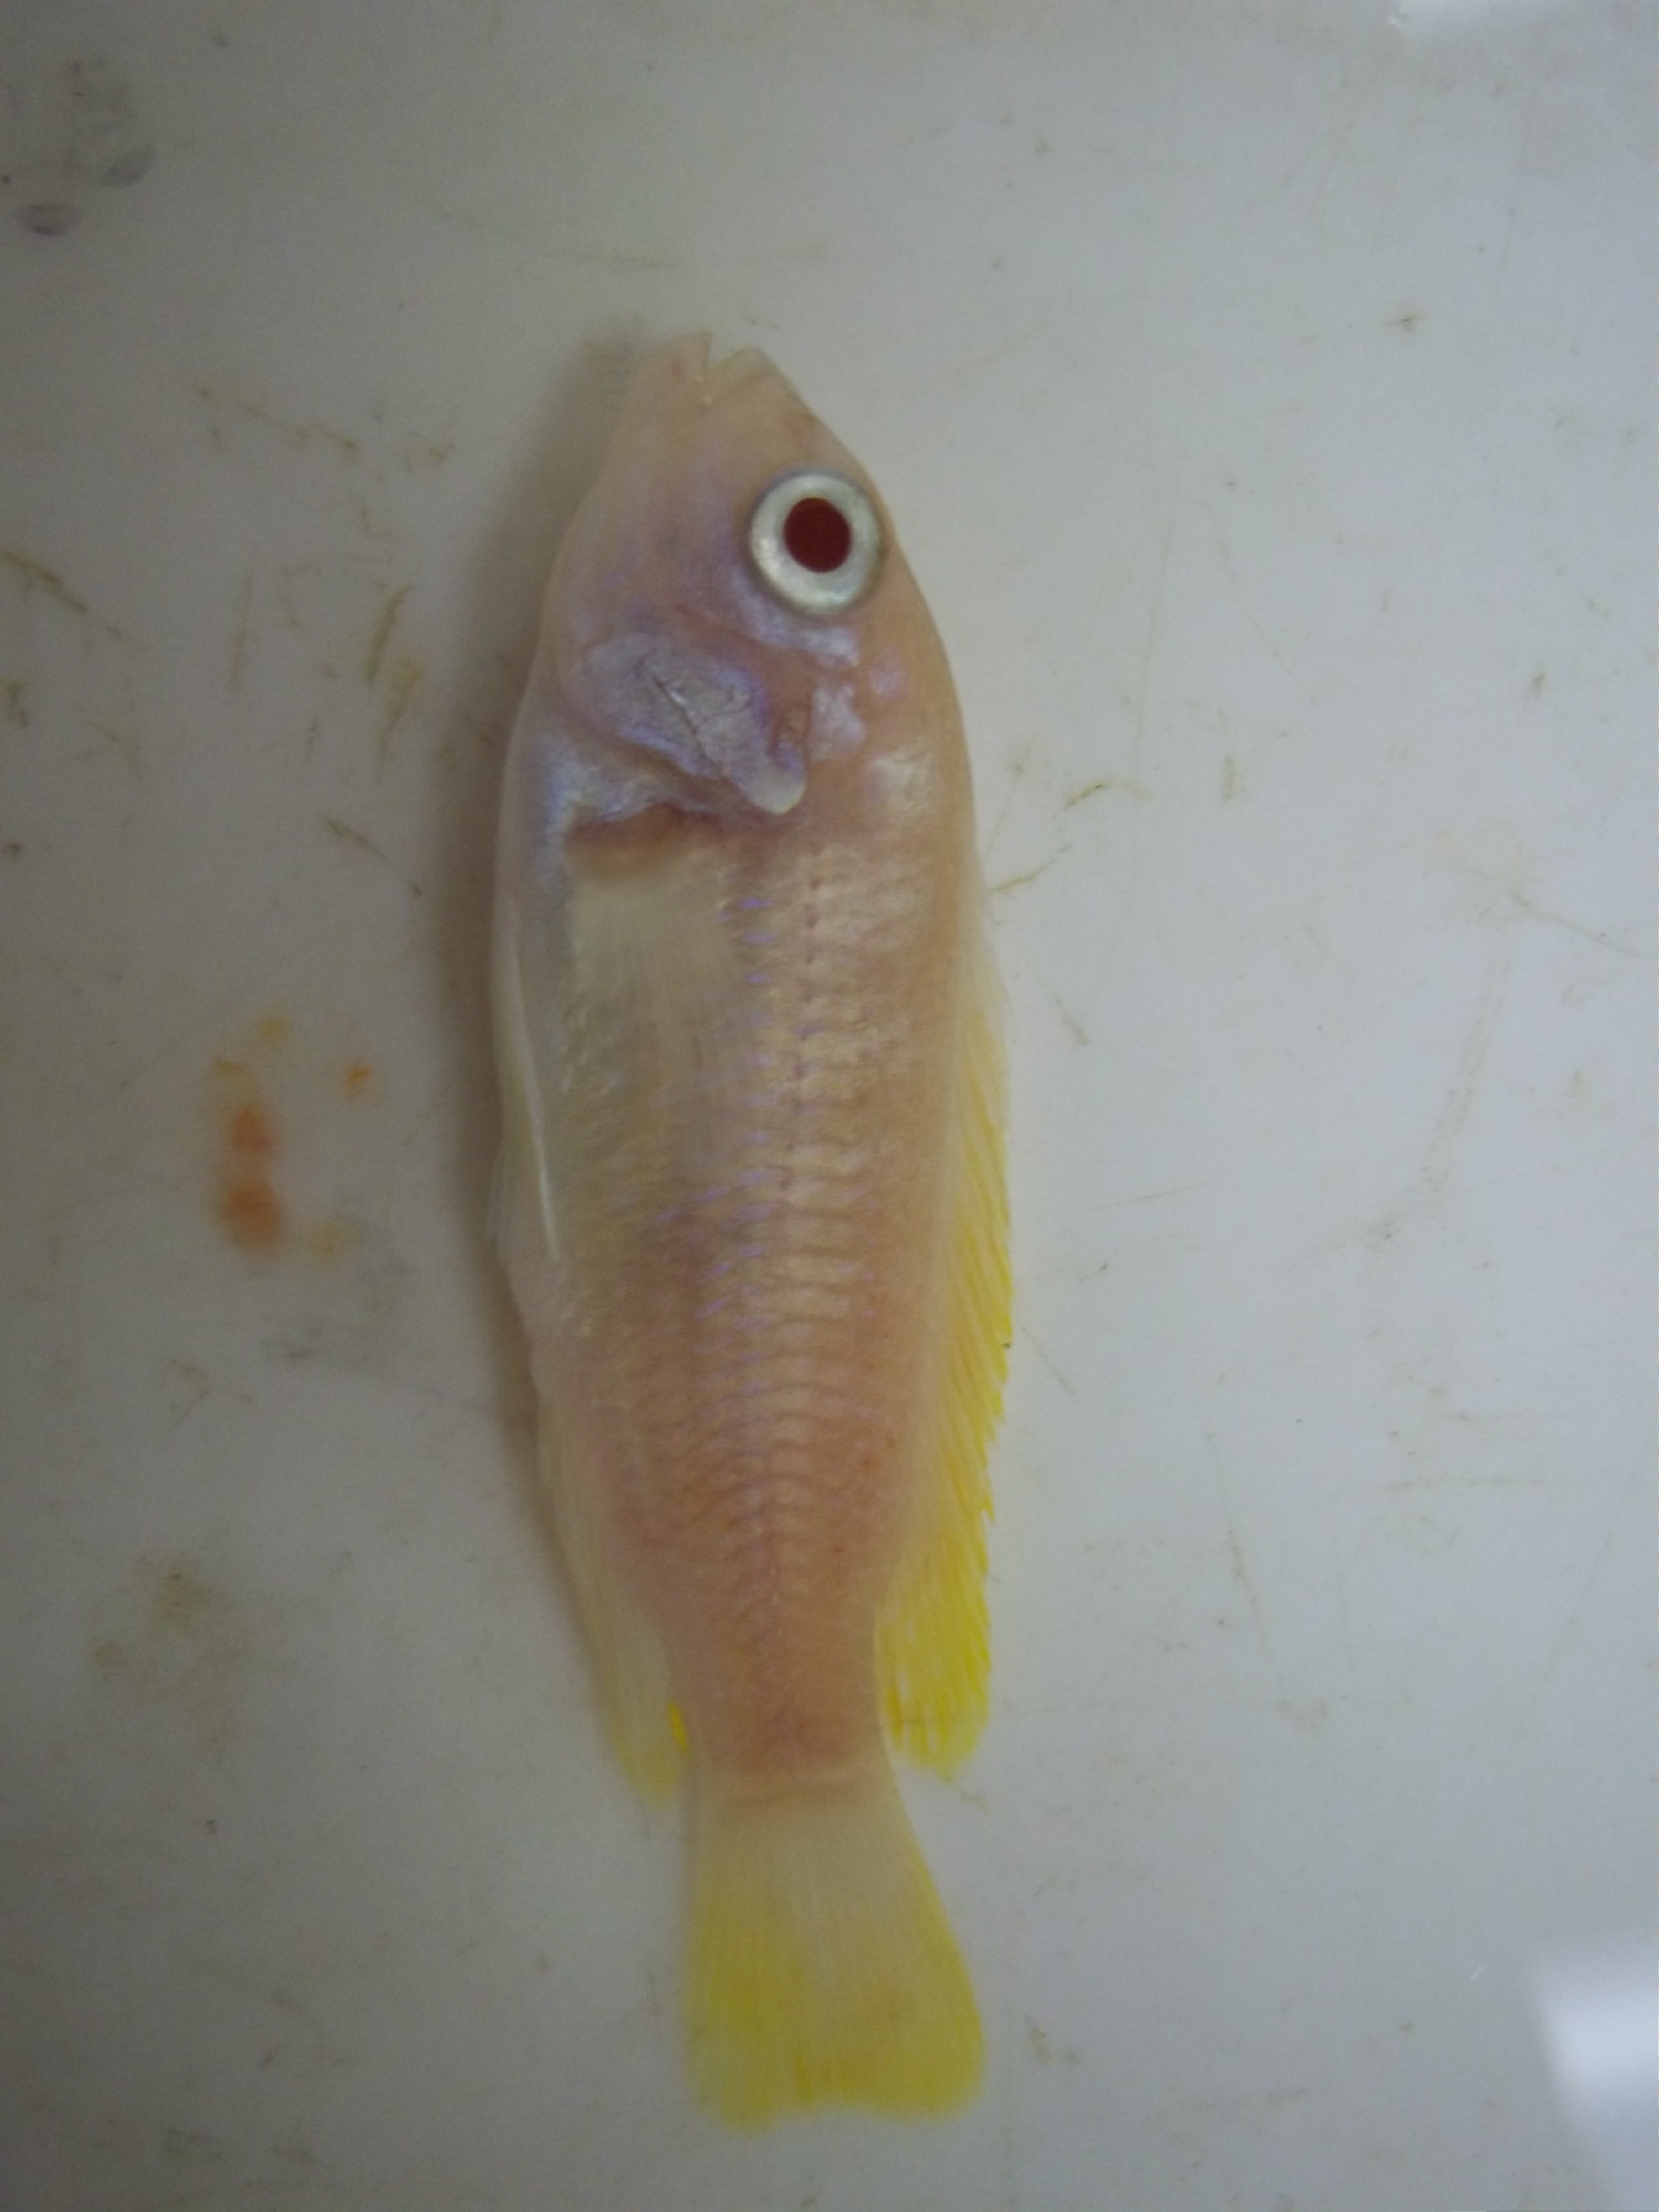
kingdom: Animalia
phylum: Chordata
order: Perciformes
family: Cichlidae
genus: Maylandia
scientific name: Maylandia zebra
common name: Zebra mbuna
